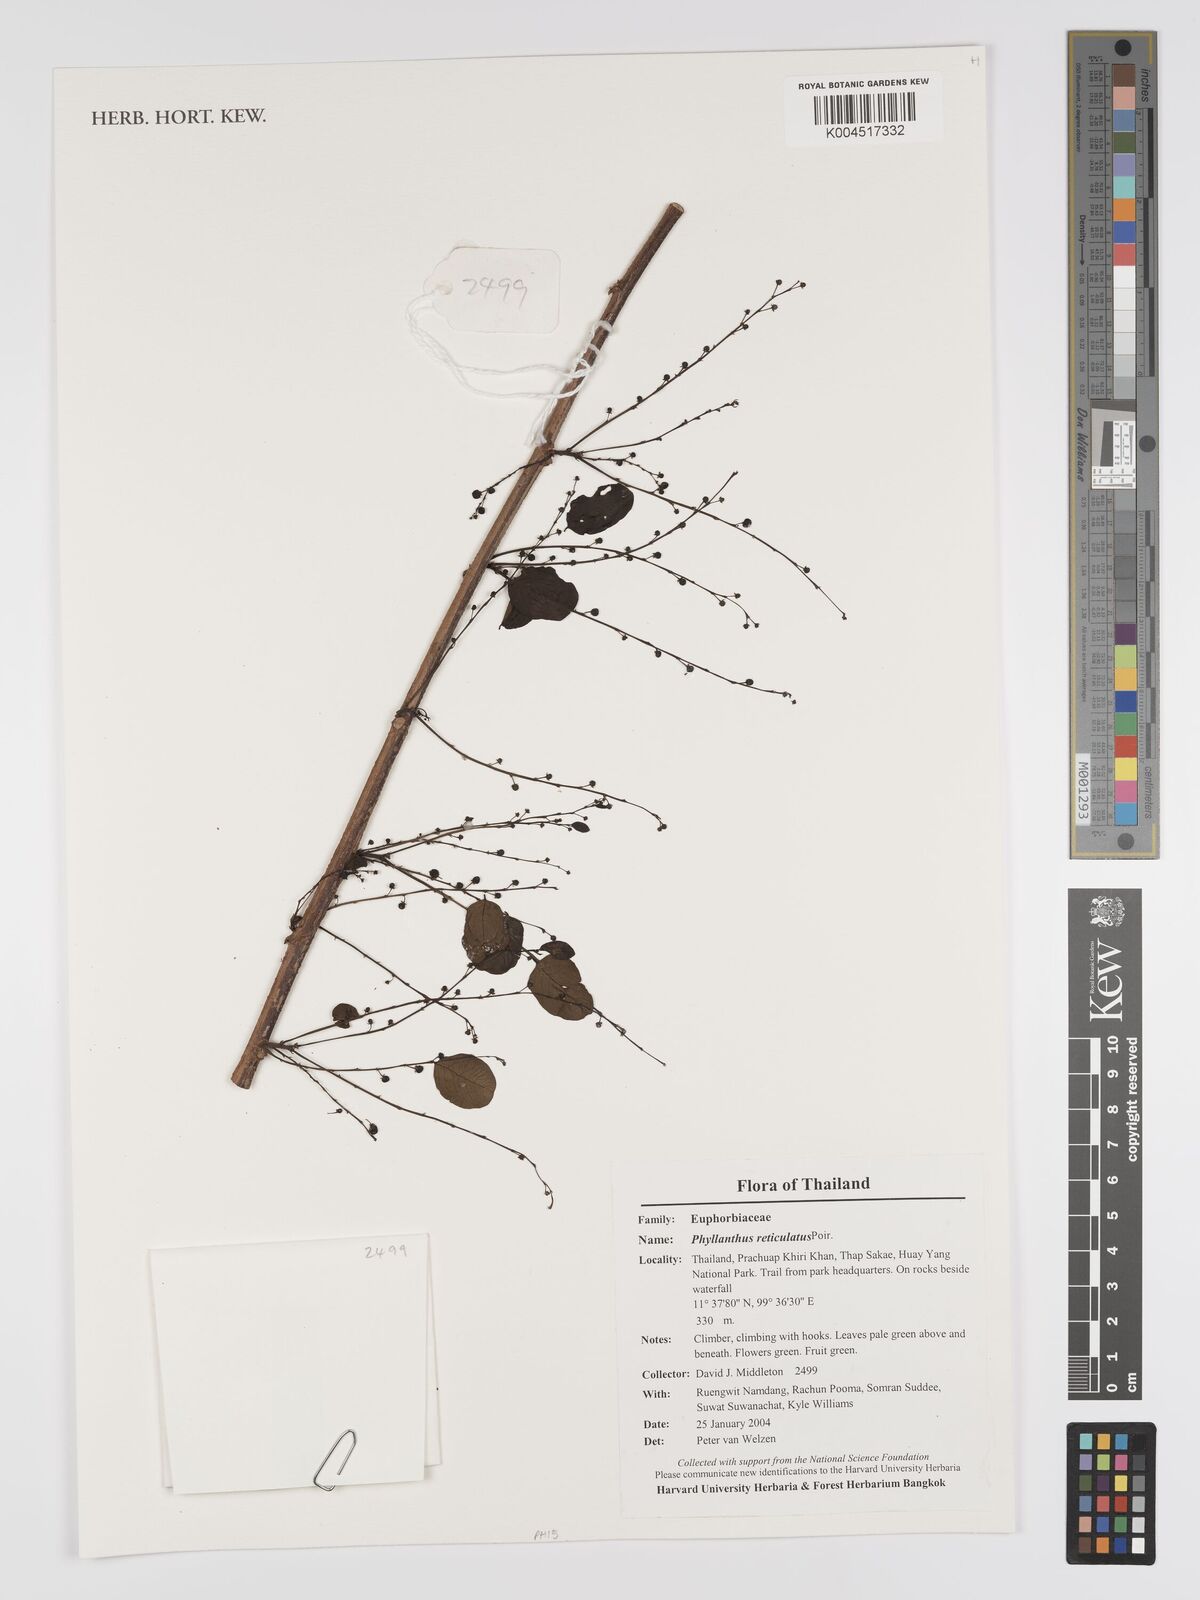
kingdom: Plantae
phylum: Tracheophyta
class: Magnoliopsida
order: Malpighiales
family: Phyllanthaceae
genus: Phyllanthus
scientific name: Phyllanthus reticulatus
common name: Potato bush
